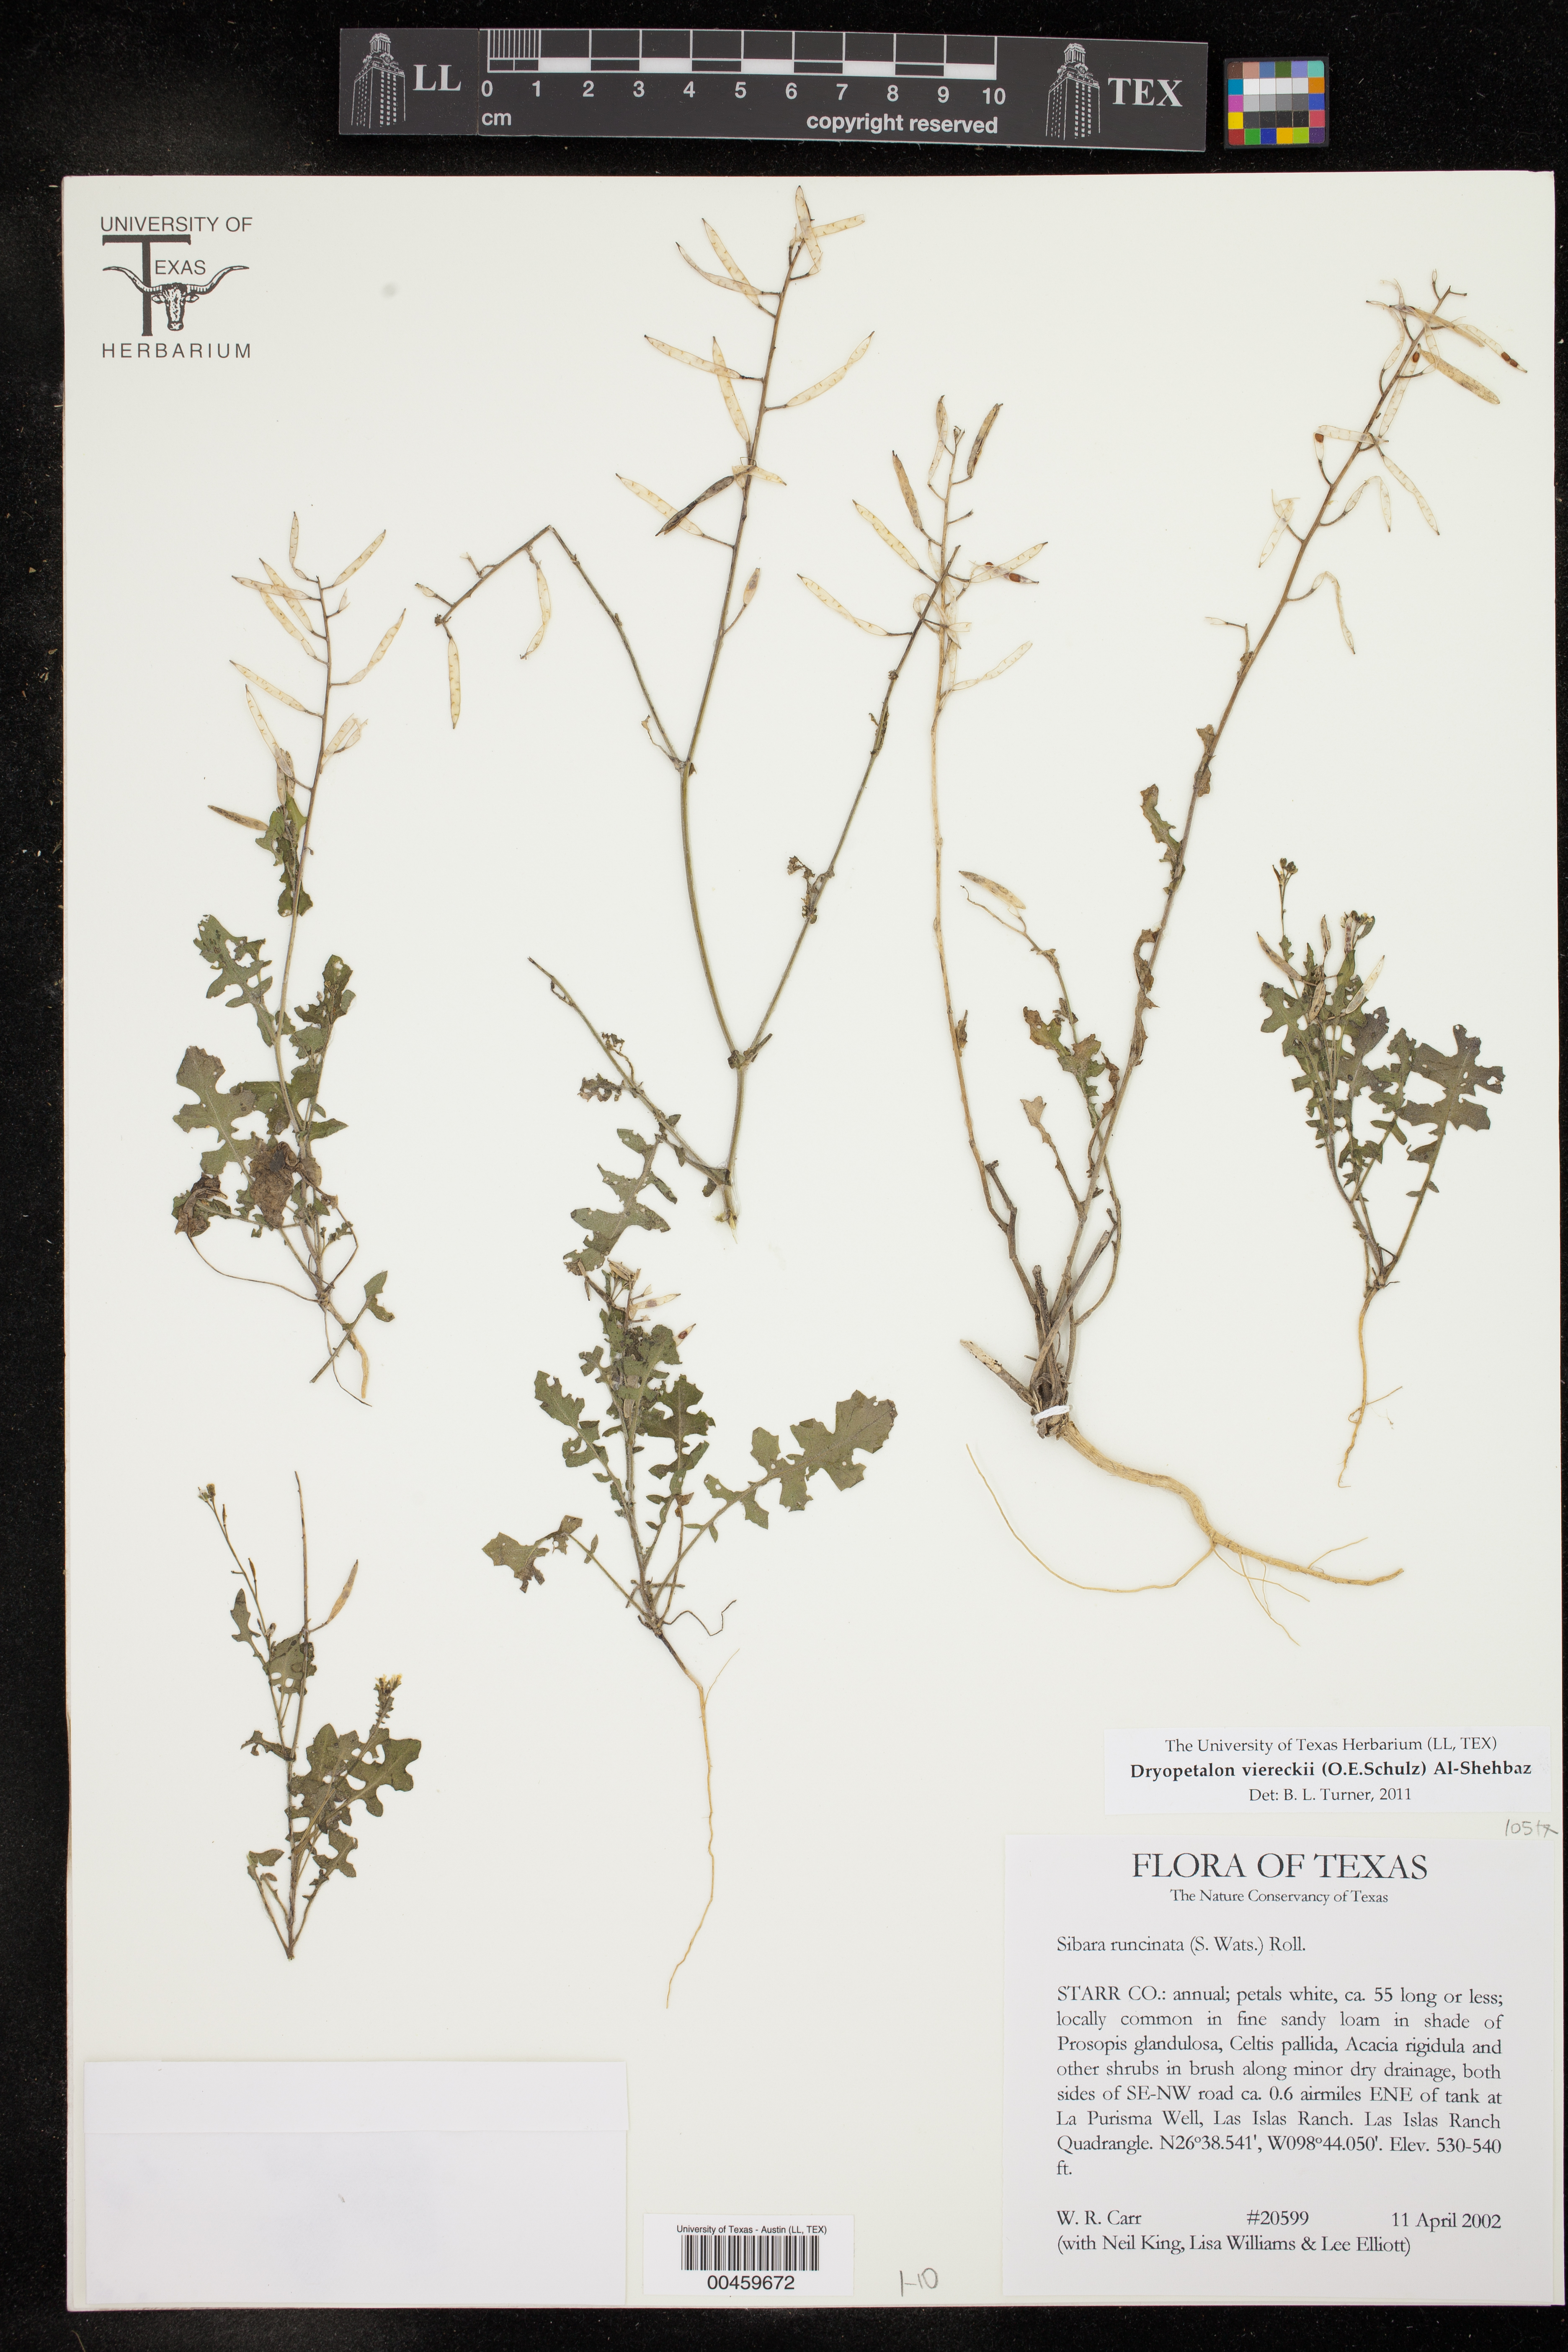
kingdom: Plantae
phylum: Tracheophyta
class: Magnoliopsida
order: Brassicales
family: Brassicaceae
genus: Phravenia
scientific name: Phravenia viereckii
